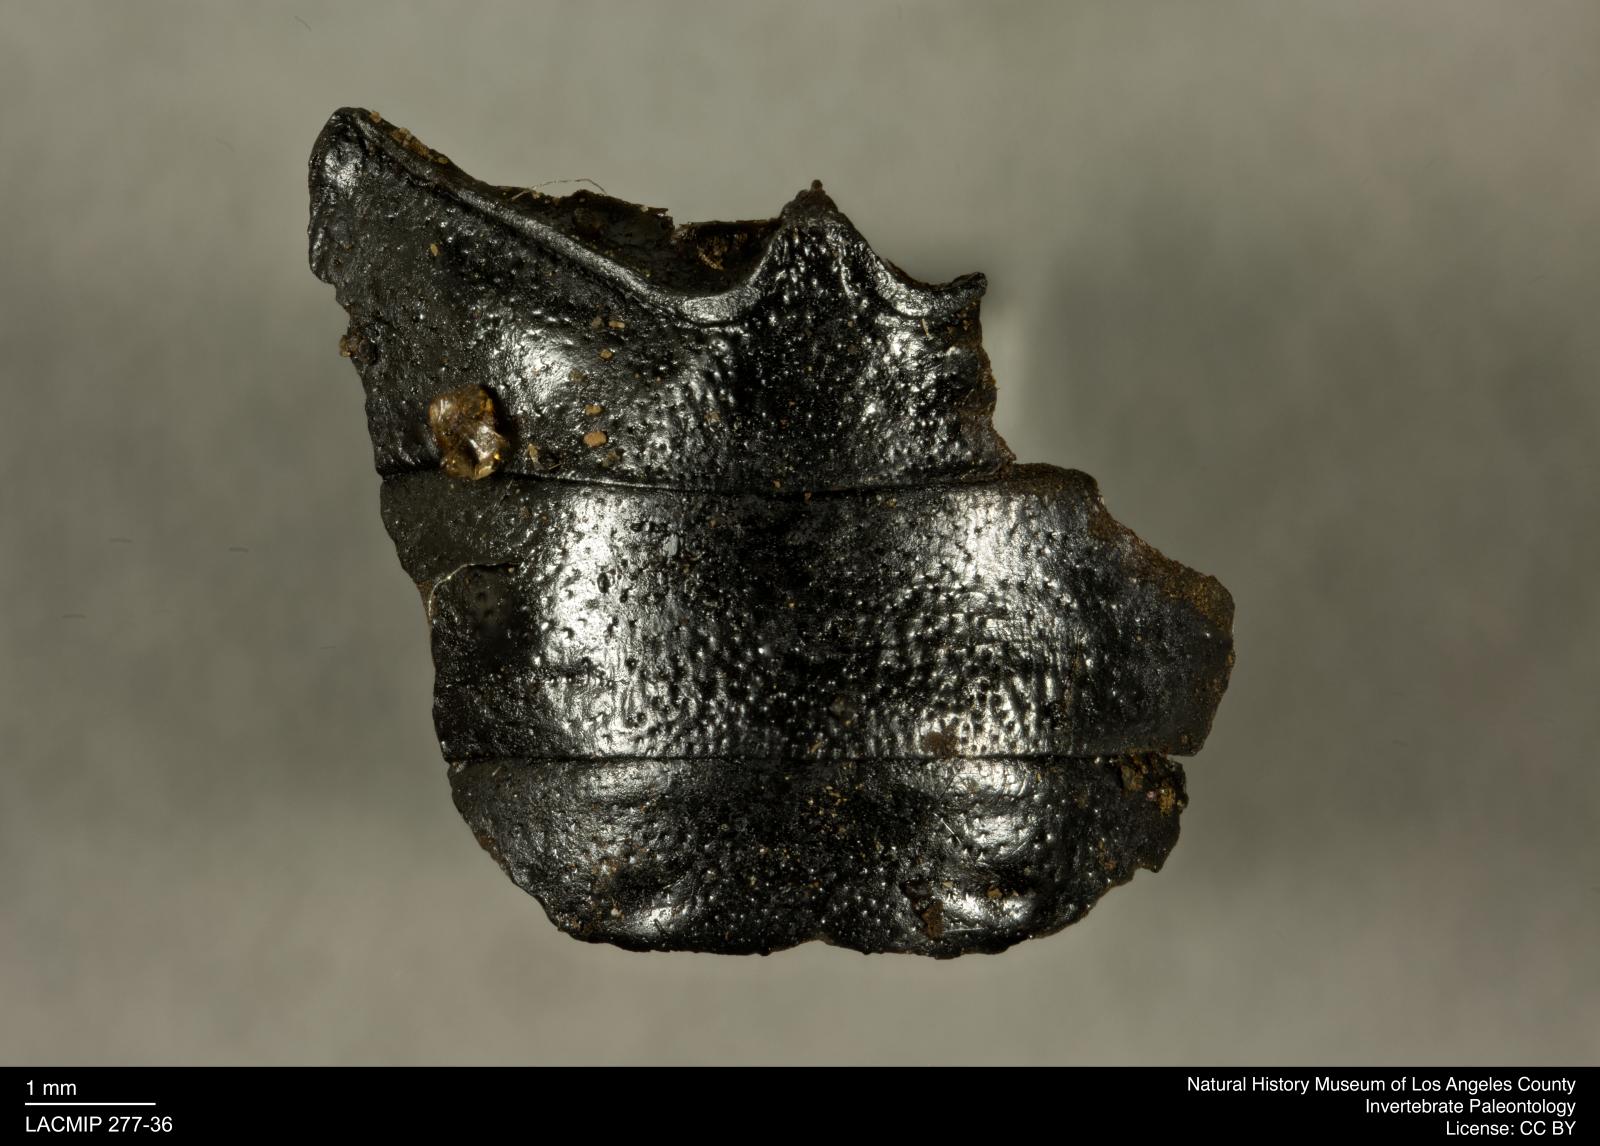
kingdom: Animalia
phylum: Arthropoda
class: Insecta
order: Coleoptera
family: Tenebrionidae
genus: Coniontis
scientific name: Coniontis abdominalis
